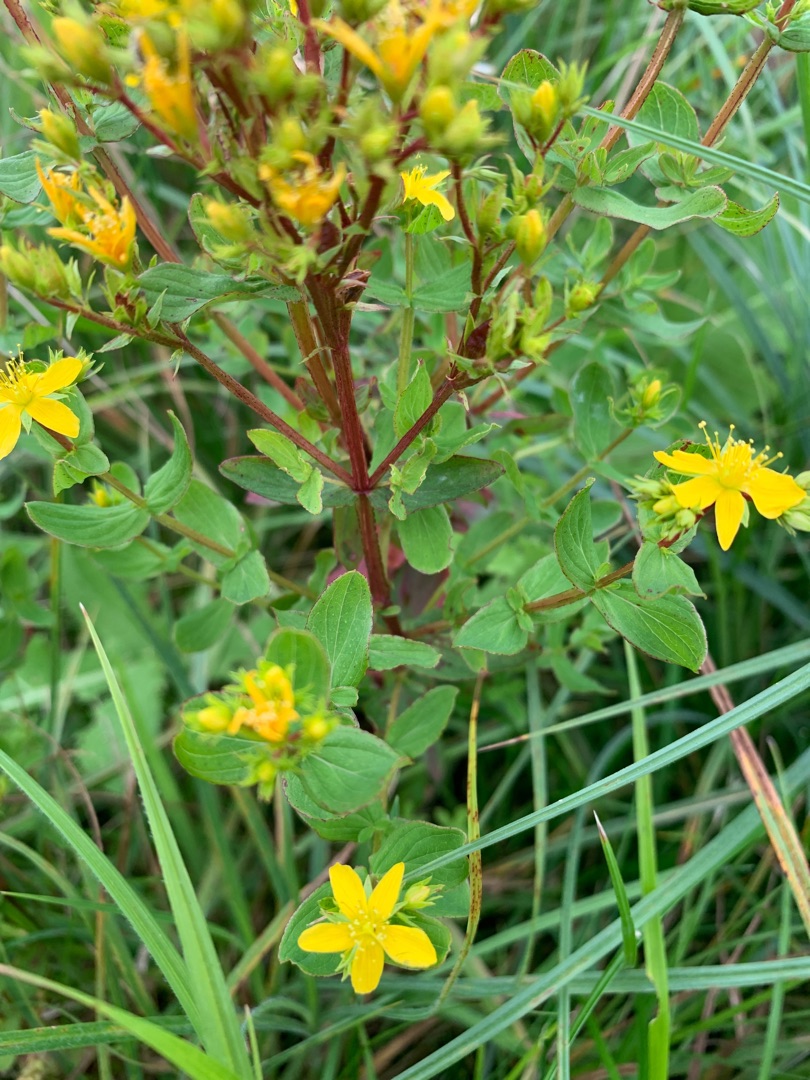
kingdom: Plantae
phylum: Tracheophyta
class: Magnoliopsida
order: Malpighiales
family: Hypericaceae
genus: Hypericum
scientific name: Hypericum tetrapterum
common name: Vinget perikon
